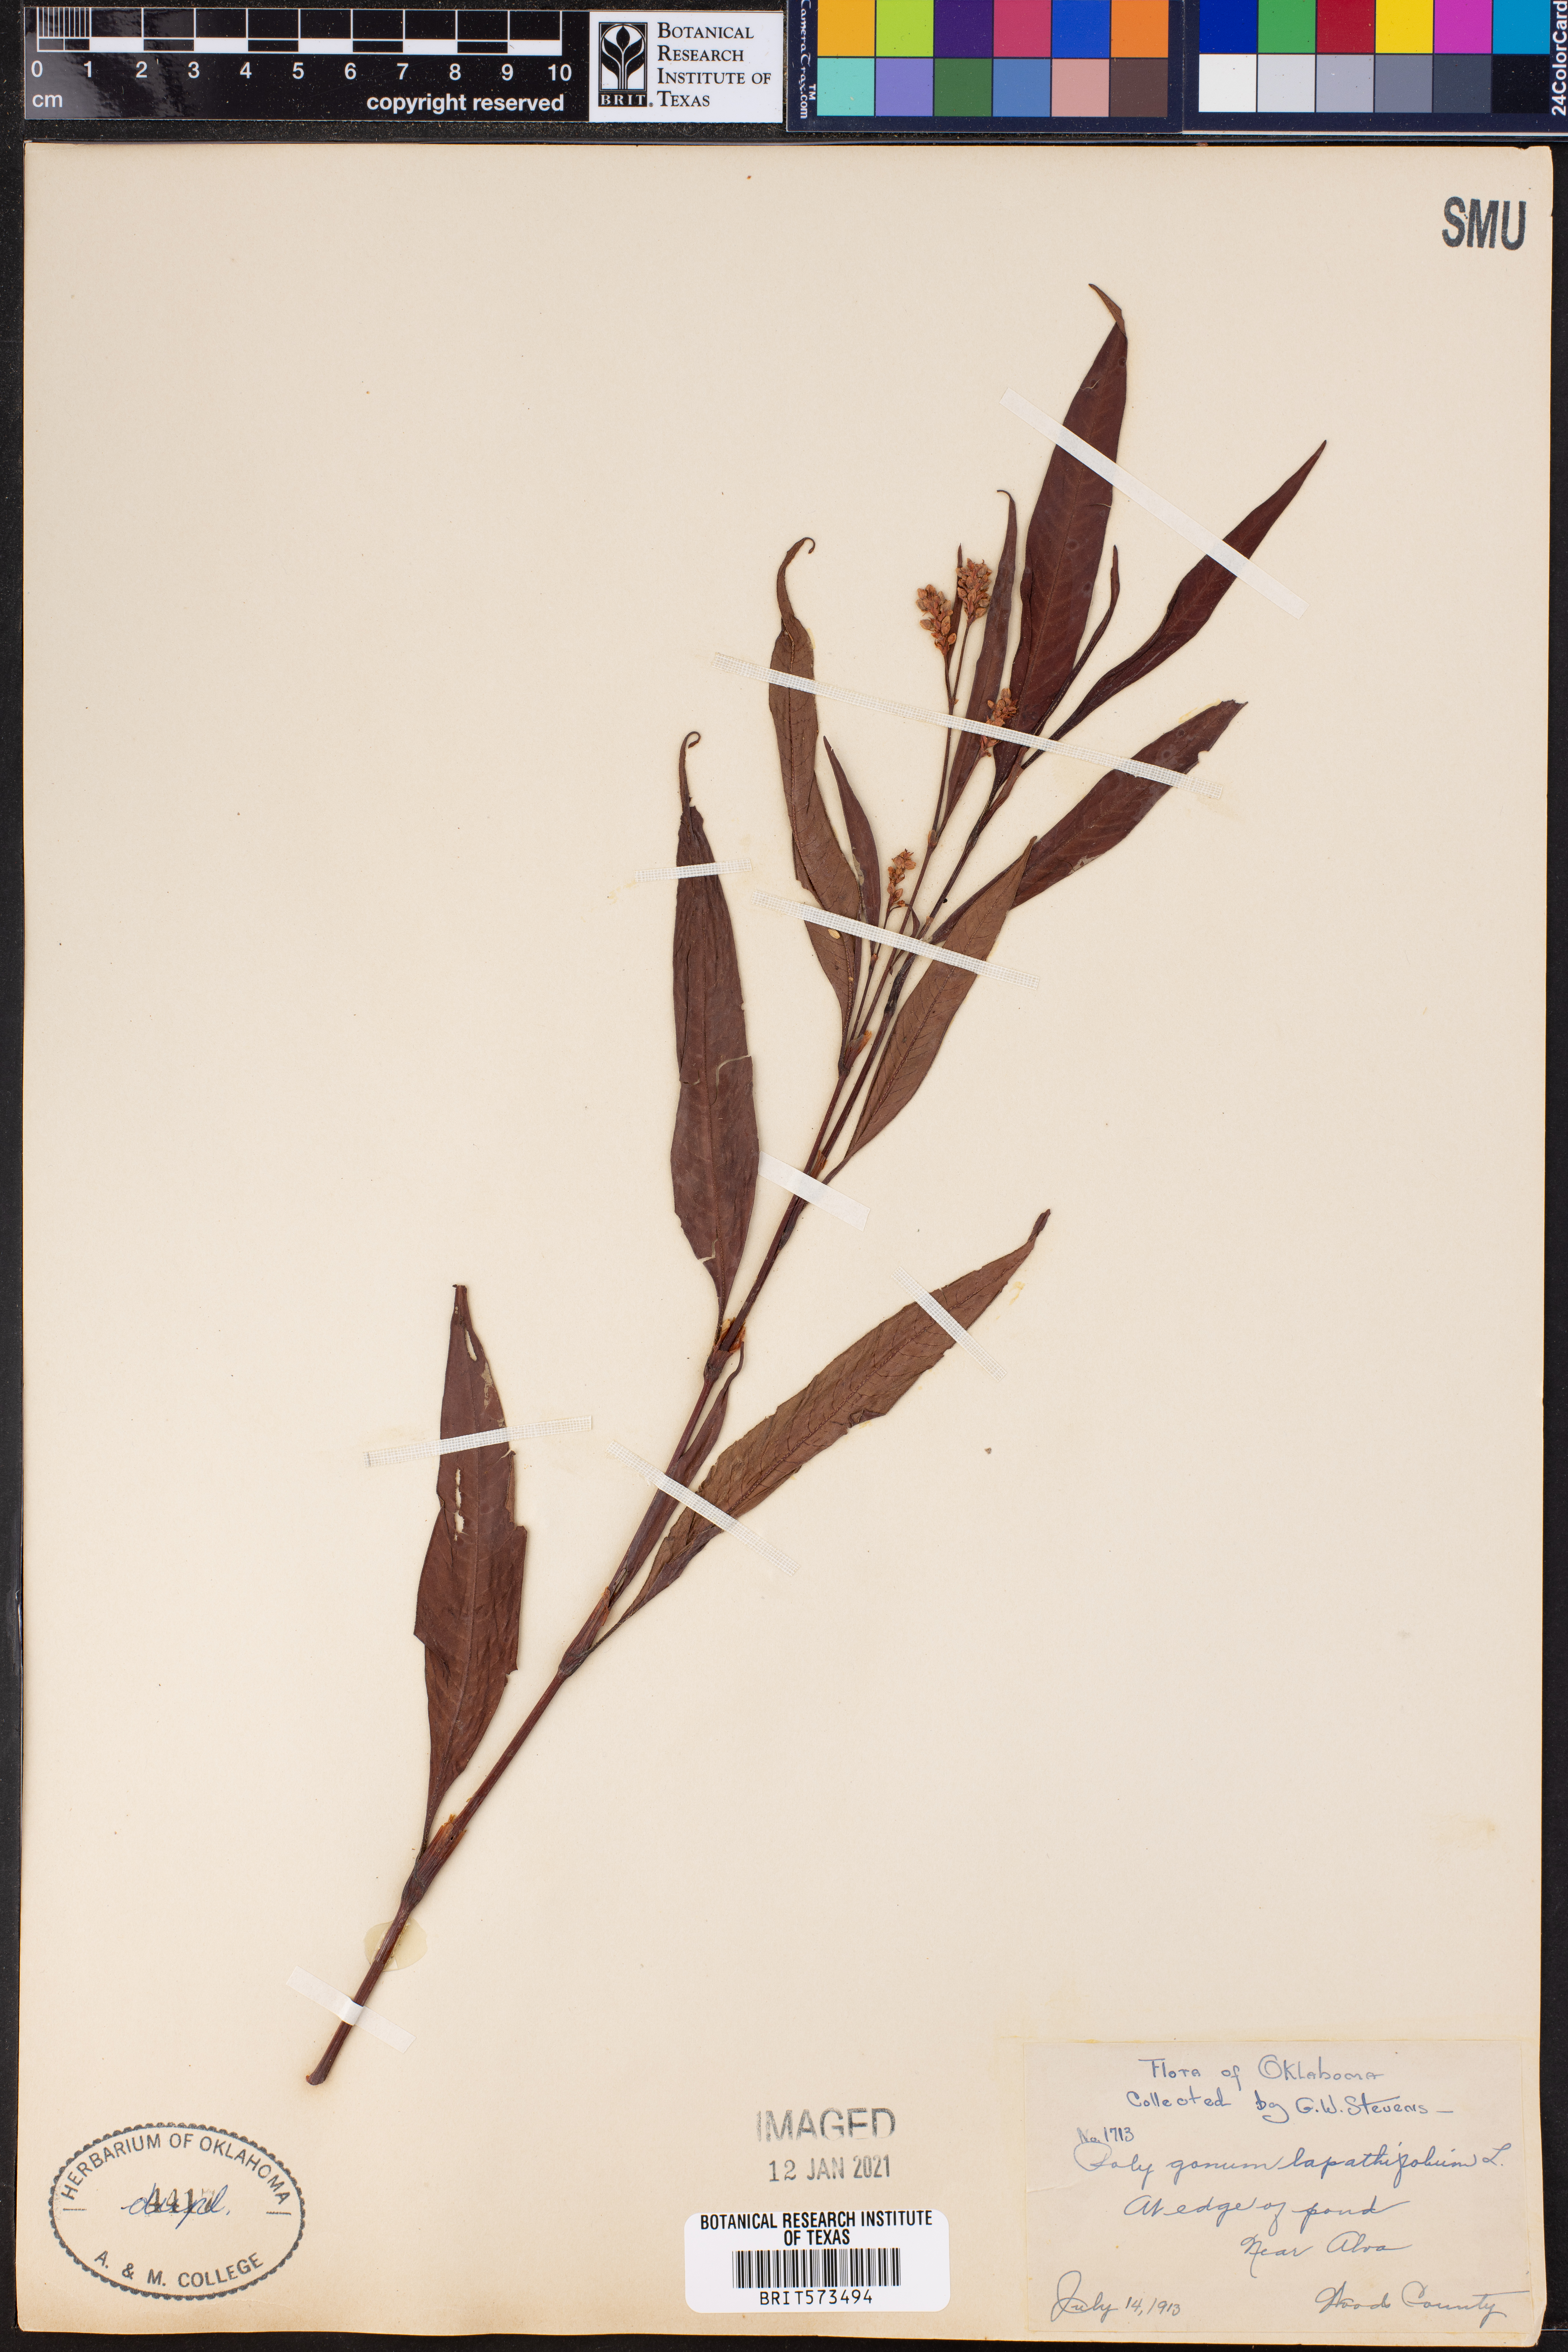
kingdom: Plantae
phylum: Tracheophyta
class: Magnoliopsida
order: Caryophyllales
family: Polygonaceae
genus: Persicaria
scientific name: Persicaria lapathifolia
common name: Curlytop knotweed
